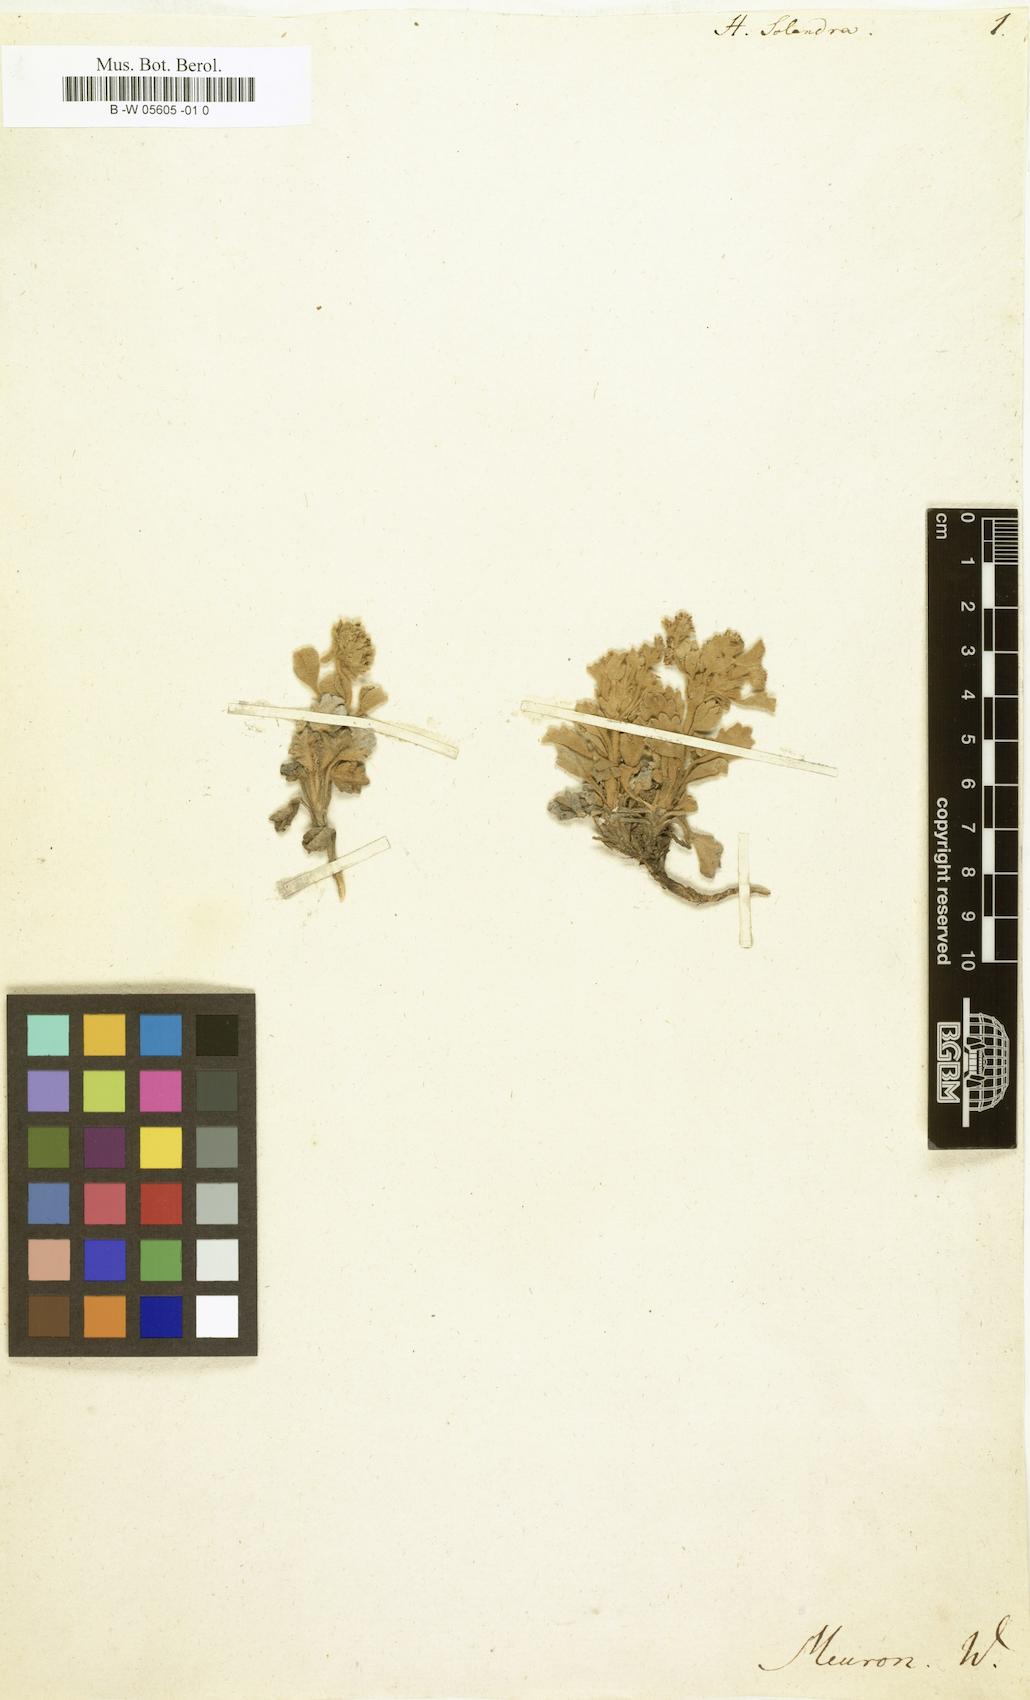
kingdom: Plantae
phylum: Tracheophyta
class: Magnoliopsida
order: Apiales
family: Apiaceae
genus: Centella
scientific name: Centella capensis
